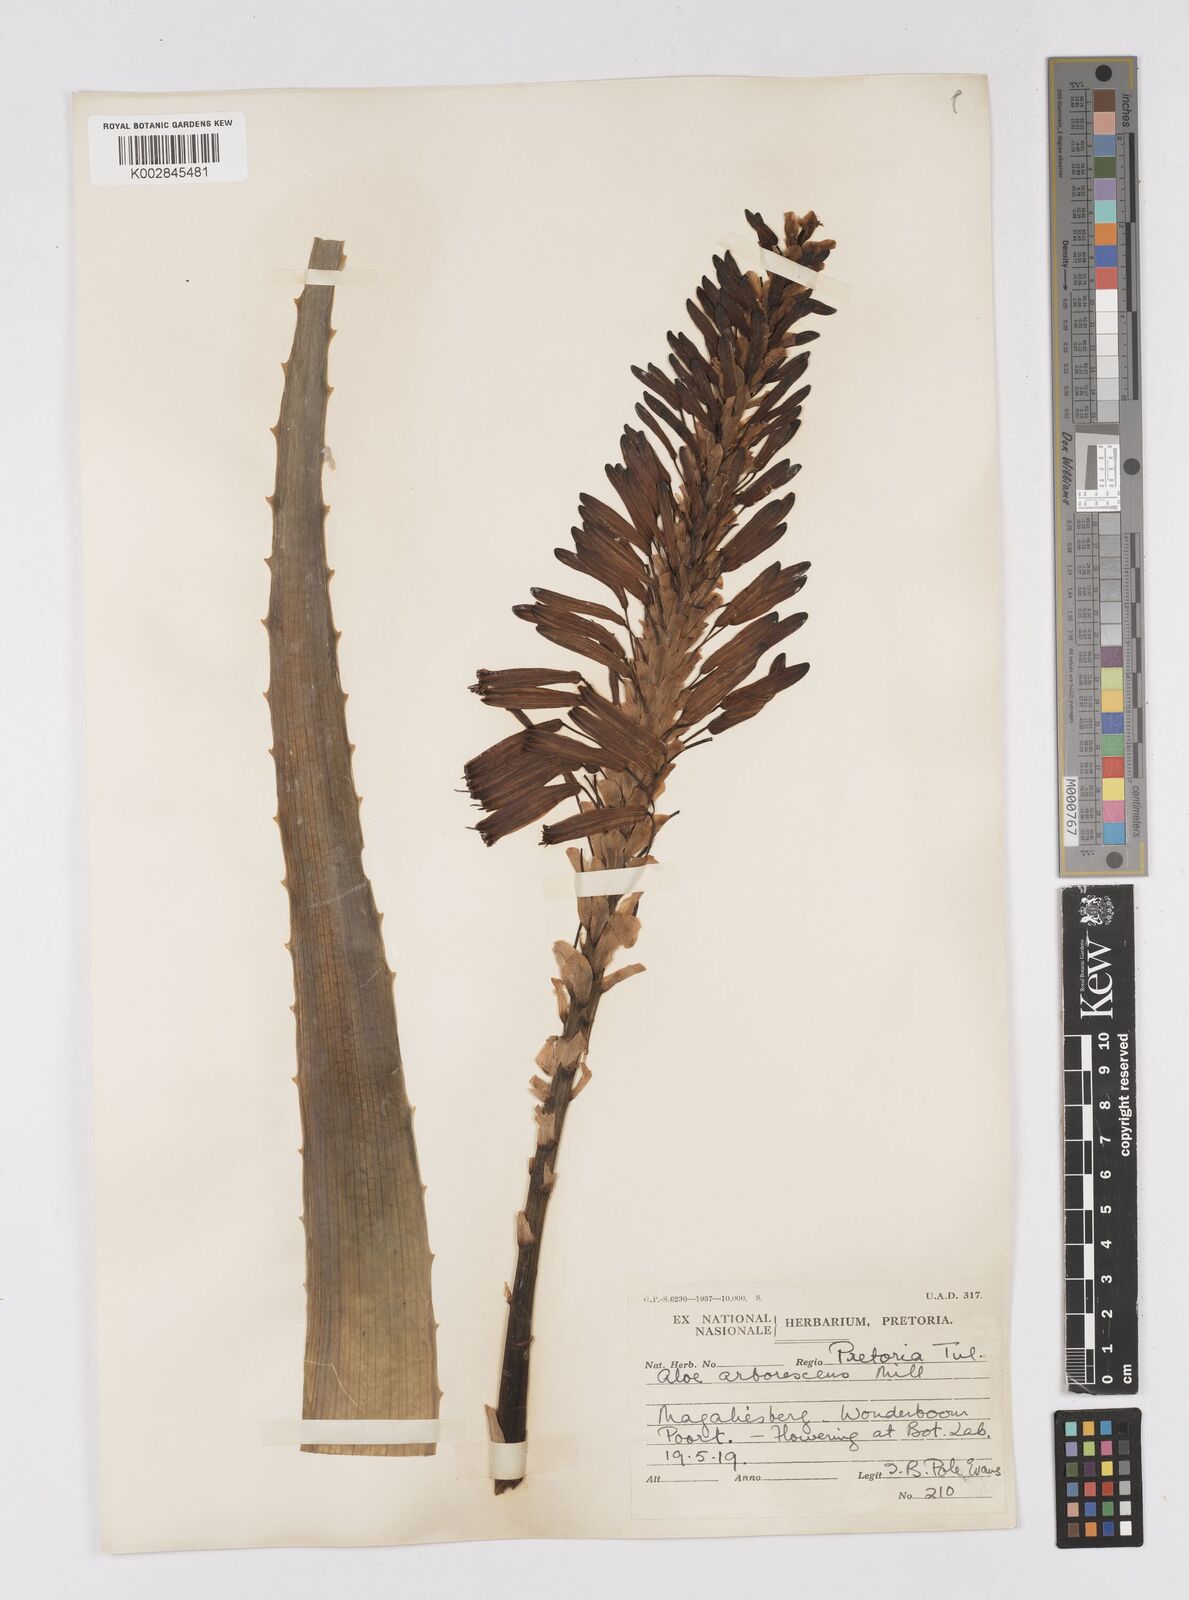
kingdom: Plantae
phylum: Tracheophyta
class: Liliopsida
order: Asparagales
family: Asphodelaceae
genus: Aloe
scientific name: Aloe arborescens
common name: Candelabra aloe
